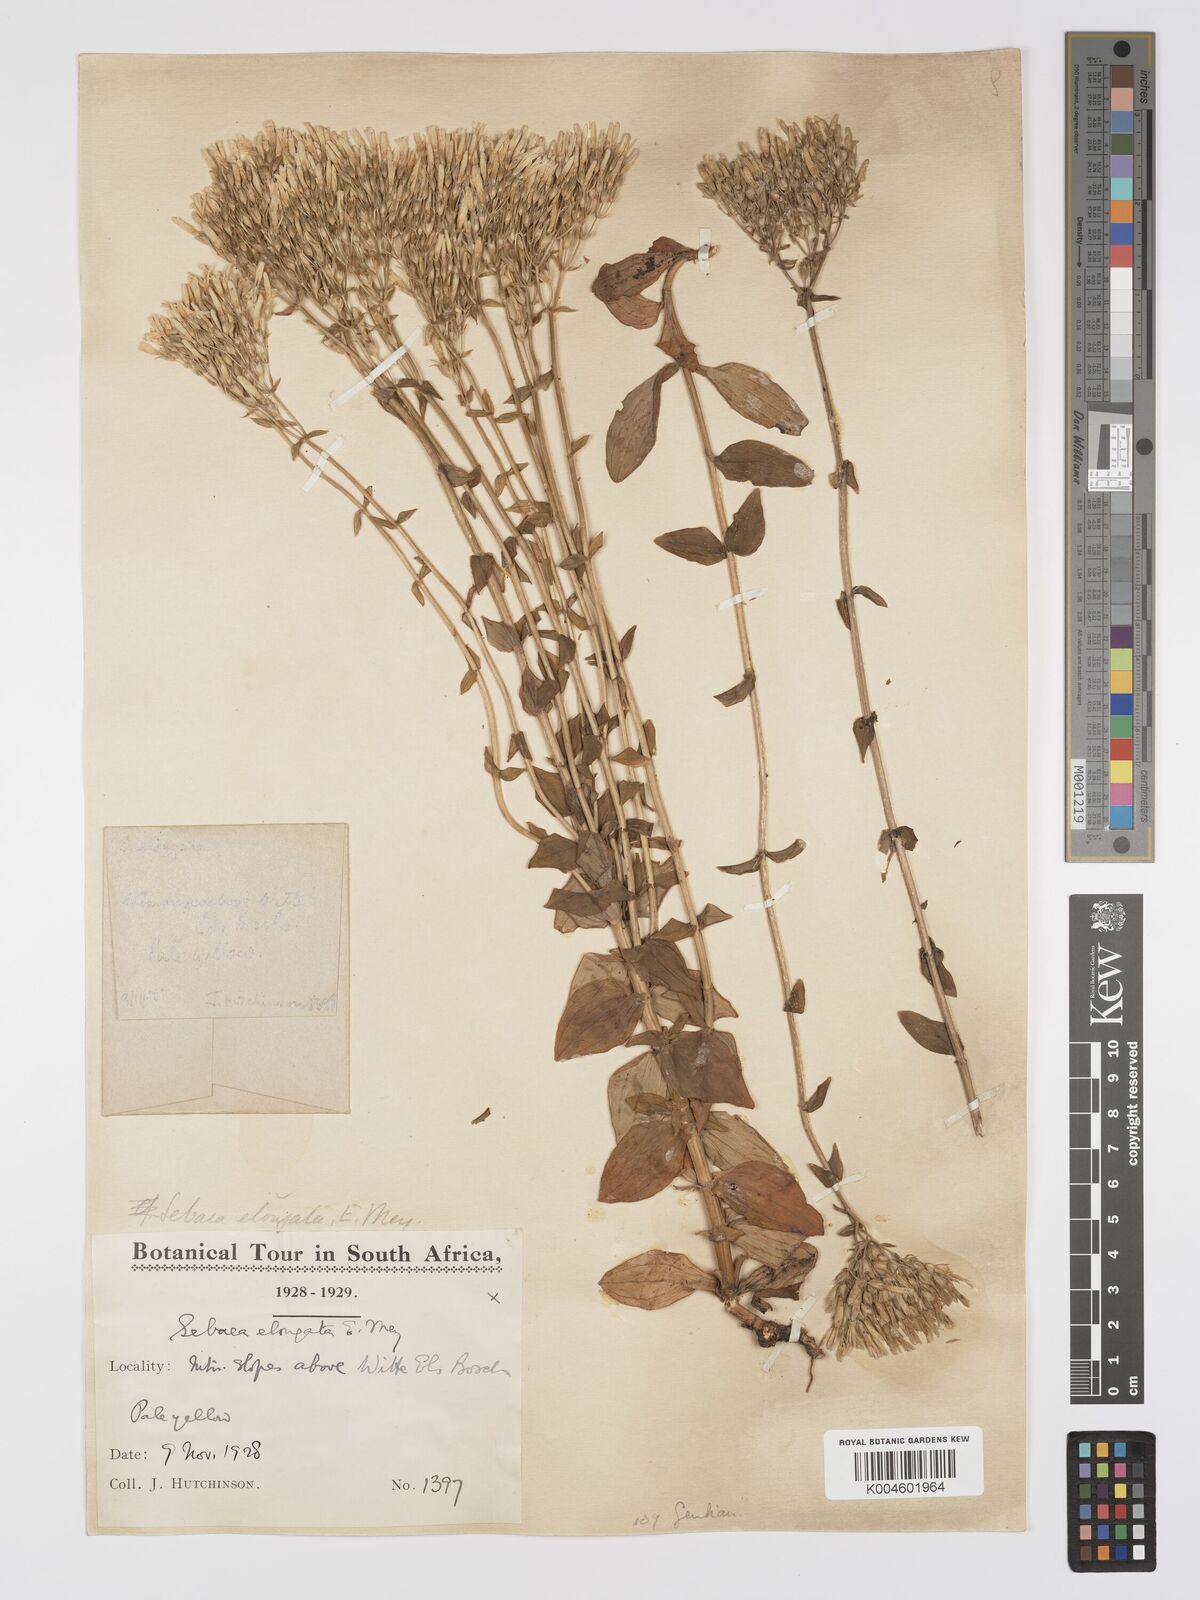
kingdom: Plantae
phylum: Tracheophyta
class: Magnoliopsida
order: Gentianales
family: Gentianaceae
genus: Sebaea
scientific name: Sebaea elongata
